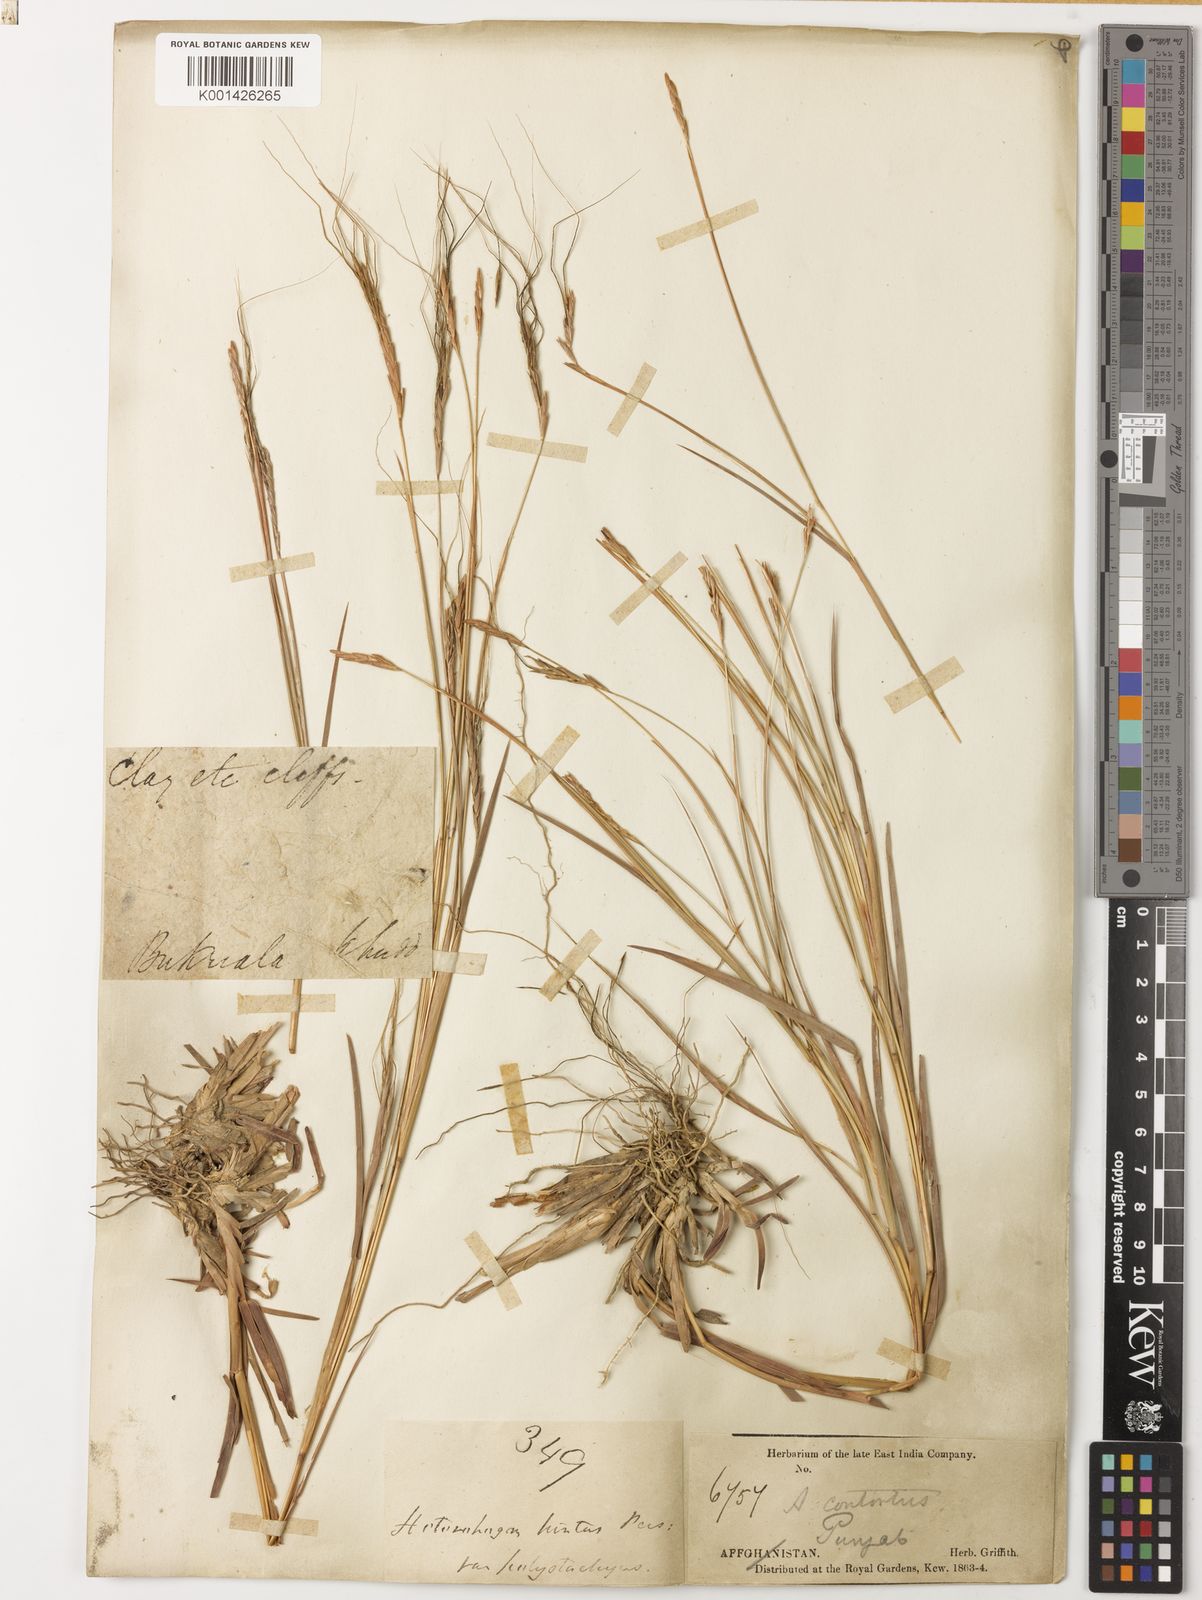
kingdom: Plantae
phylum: Tracheophyta
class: Liliopsida
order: Poales
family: Poaceae
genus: Heteropogon
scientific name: Heteropogon contortus
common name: Tanglehead
